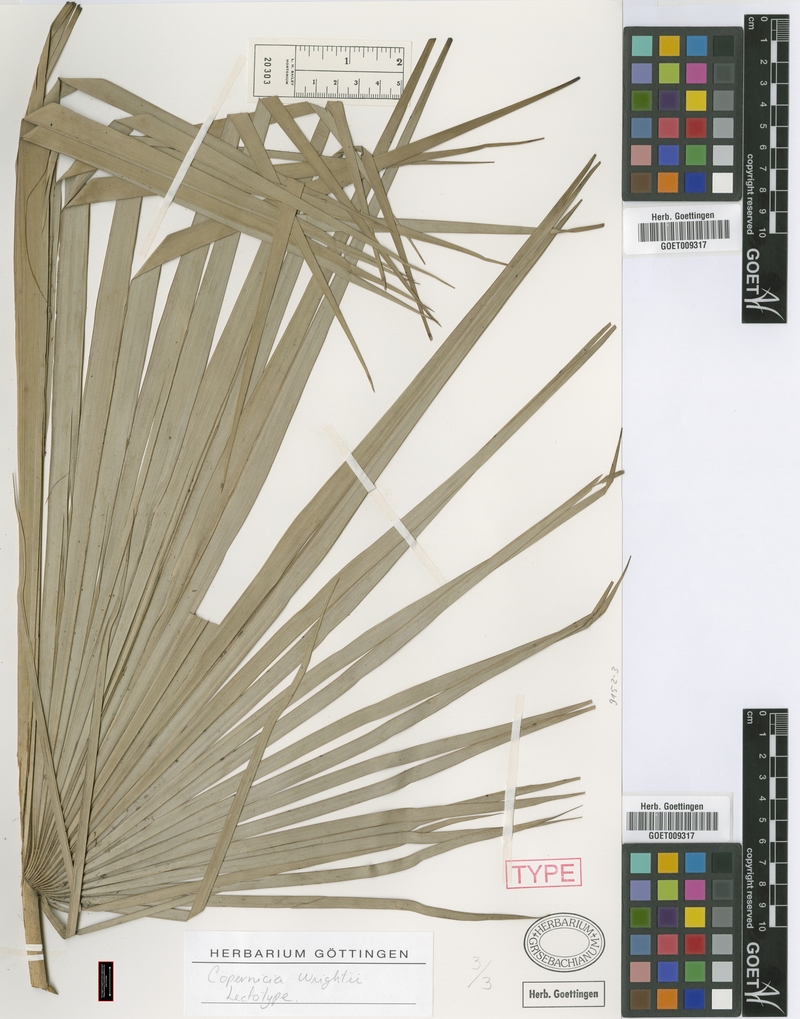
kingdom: Plantae
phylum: Tracheophyta
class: Liliopsida
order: Arecales
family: Arecaceae
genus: Acoelorraphe
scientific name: Acoelorraphe wrightii
